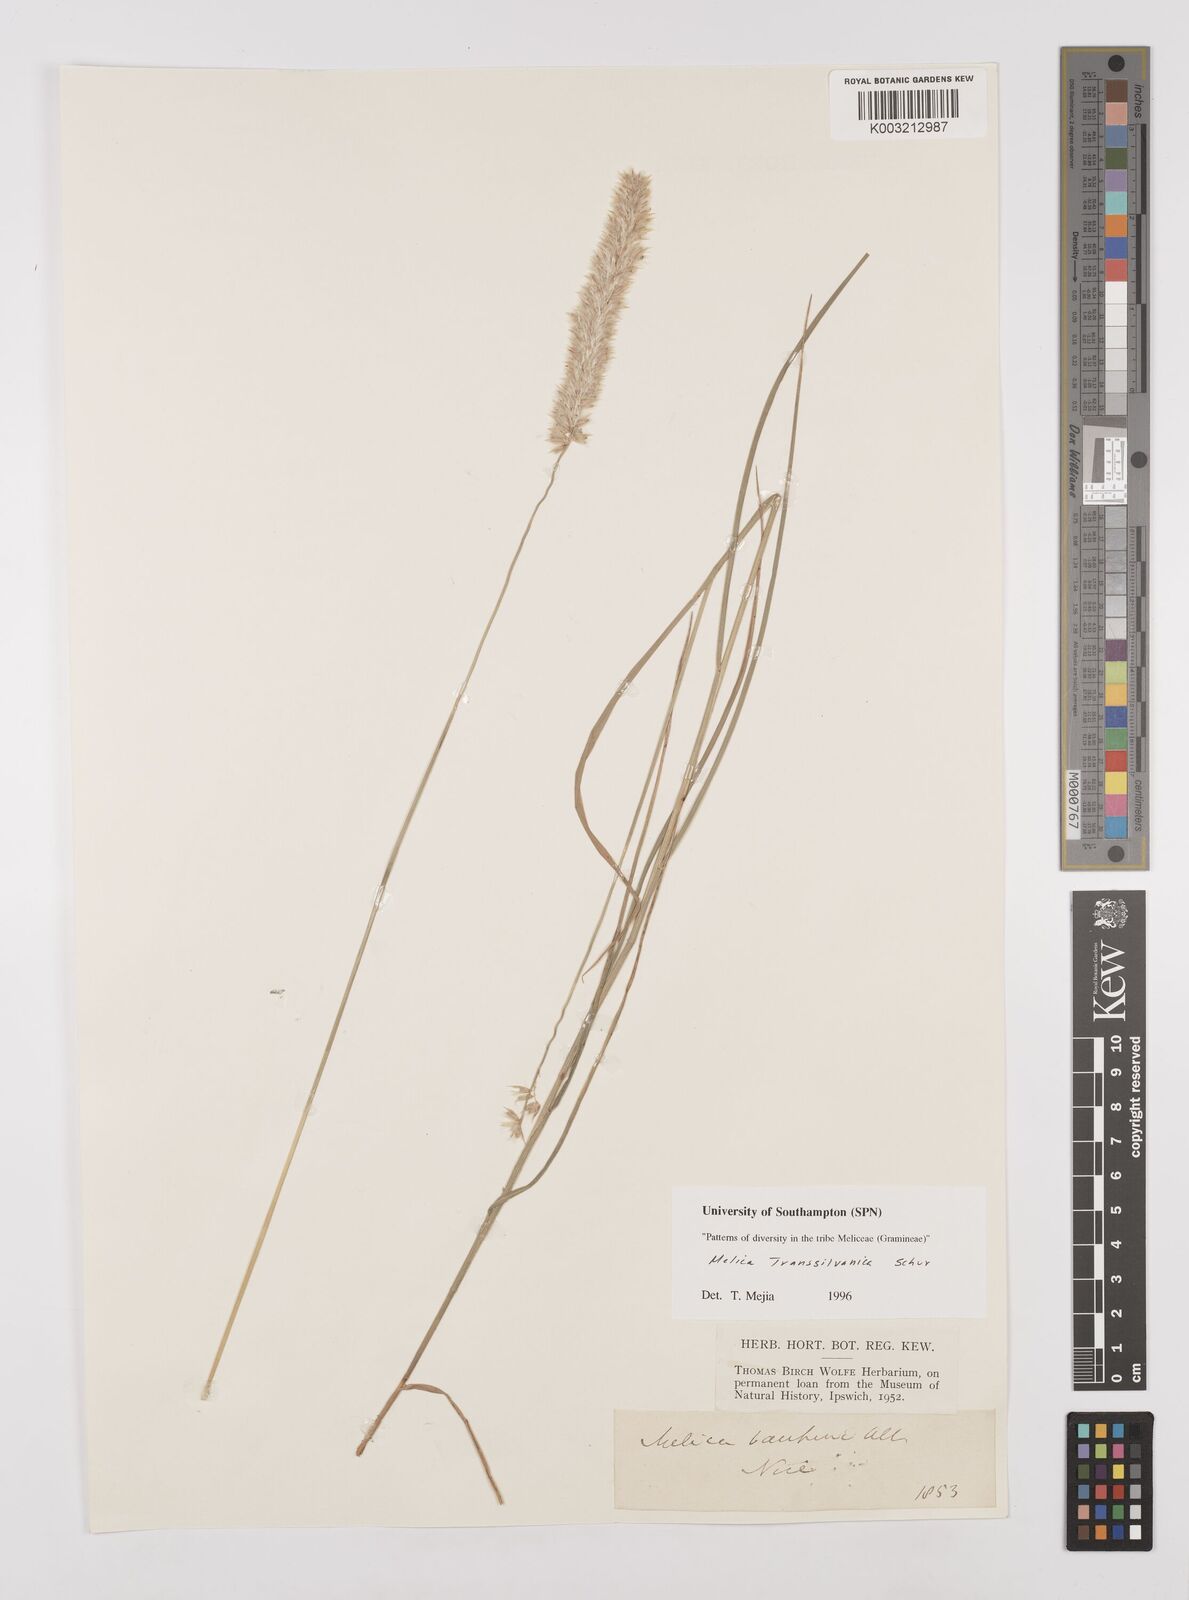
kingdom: Plantae
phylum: Tracheophyta
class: Liliopsida
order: Poales
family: Poaceae
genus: Melica
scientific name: Melica transsilvanica
